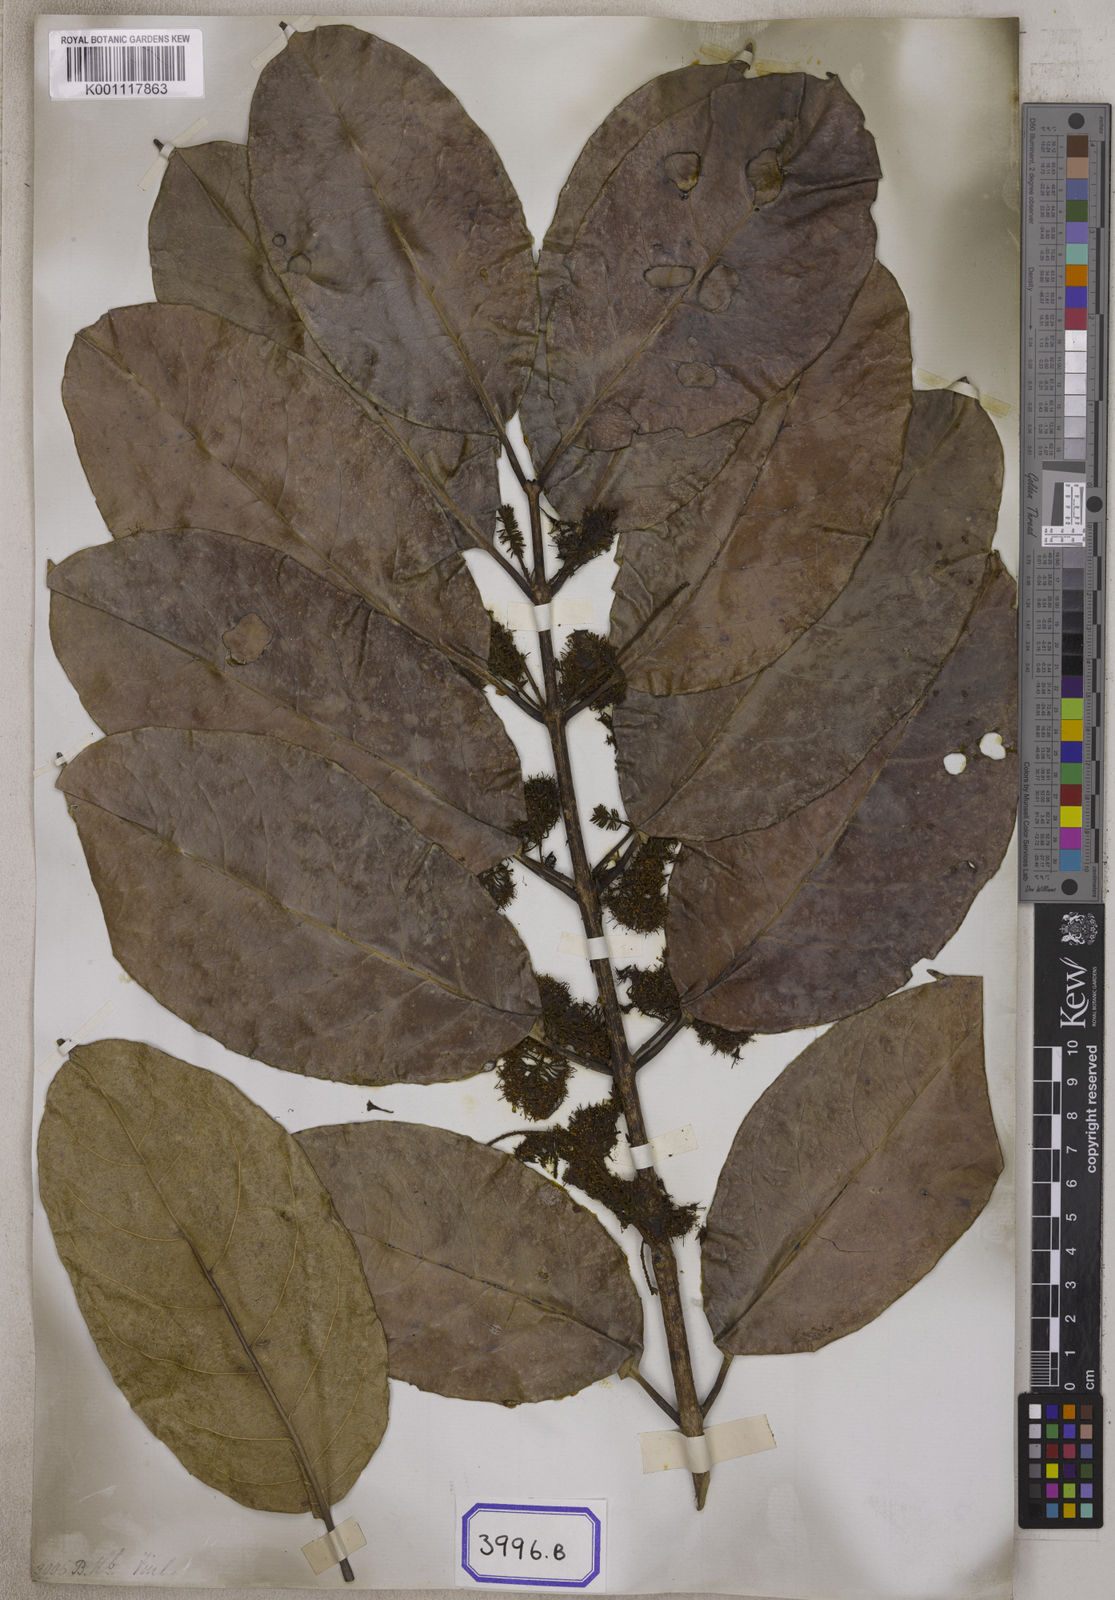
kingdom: Plantae
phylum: Tracheophyta
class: Magnoliopsida
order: Myrtales
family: Combretaceae
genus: Combretum
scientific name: Combretum
